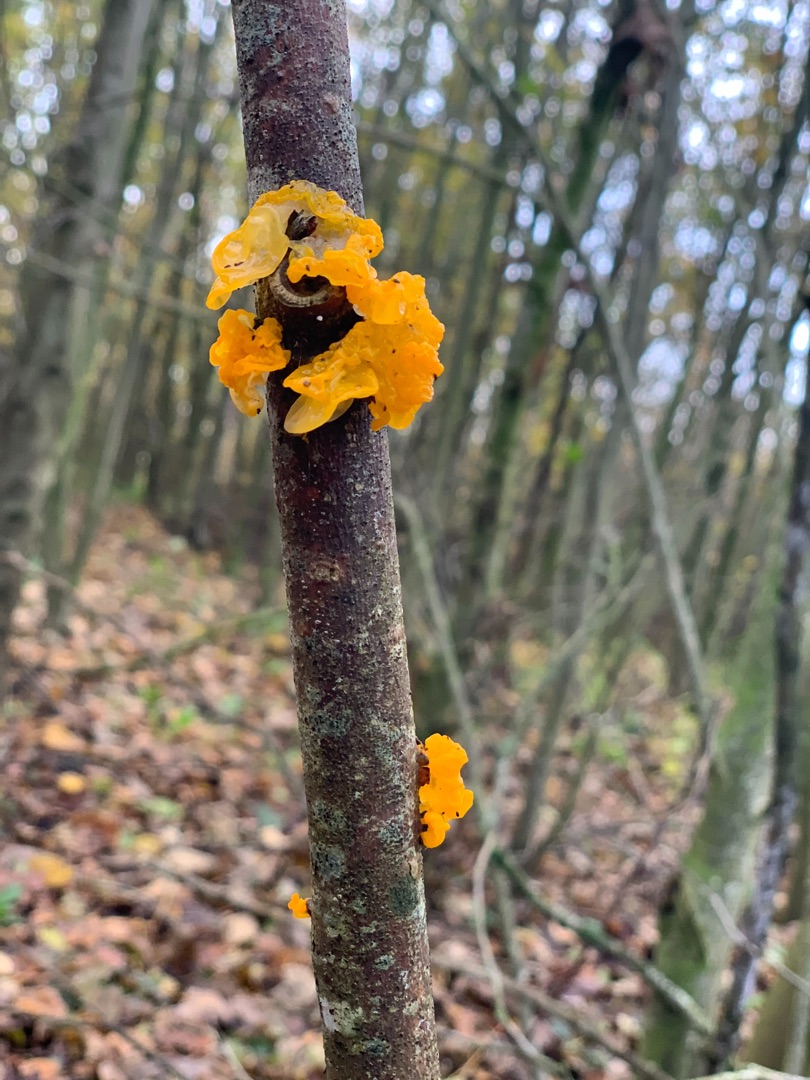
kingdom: Fungi
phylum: Basidiomycota
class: Tremellomycetes
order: Tremellales
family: Tremellaceae
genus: Tremella
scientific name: Tremella mesenterica
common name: Gul bævresvamp
